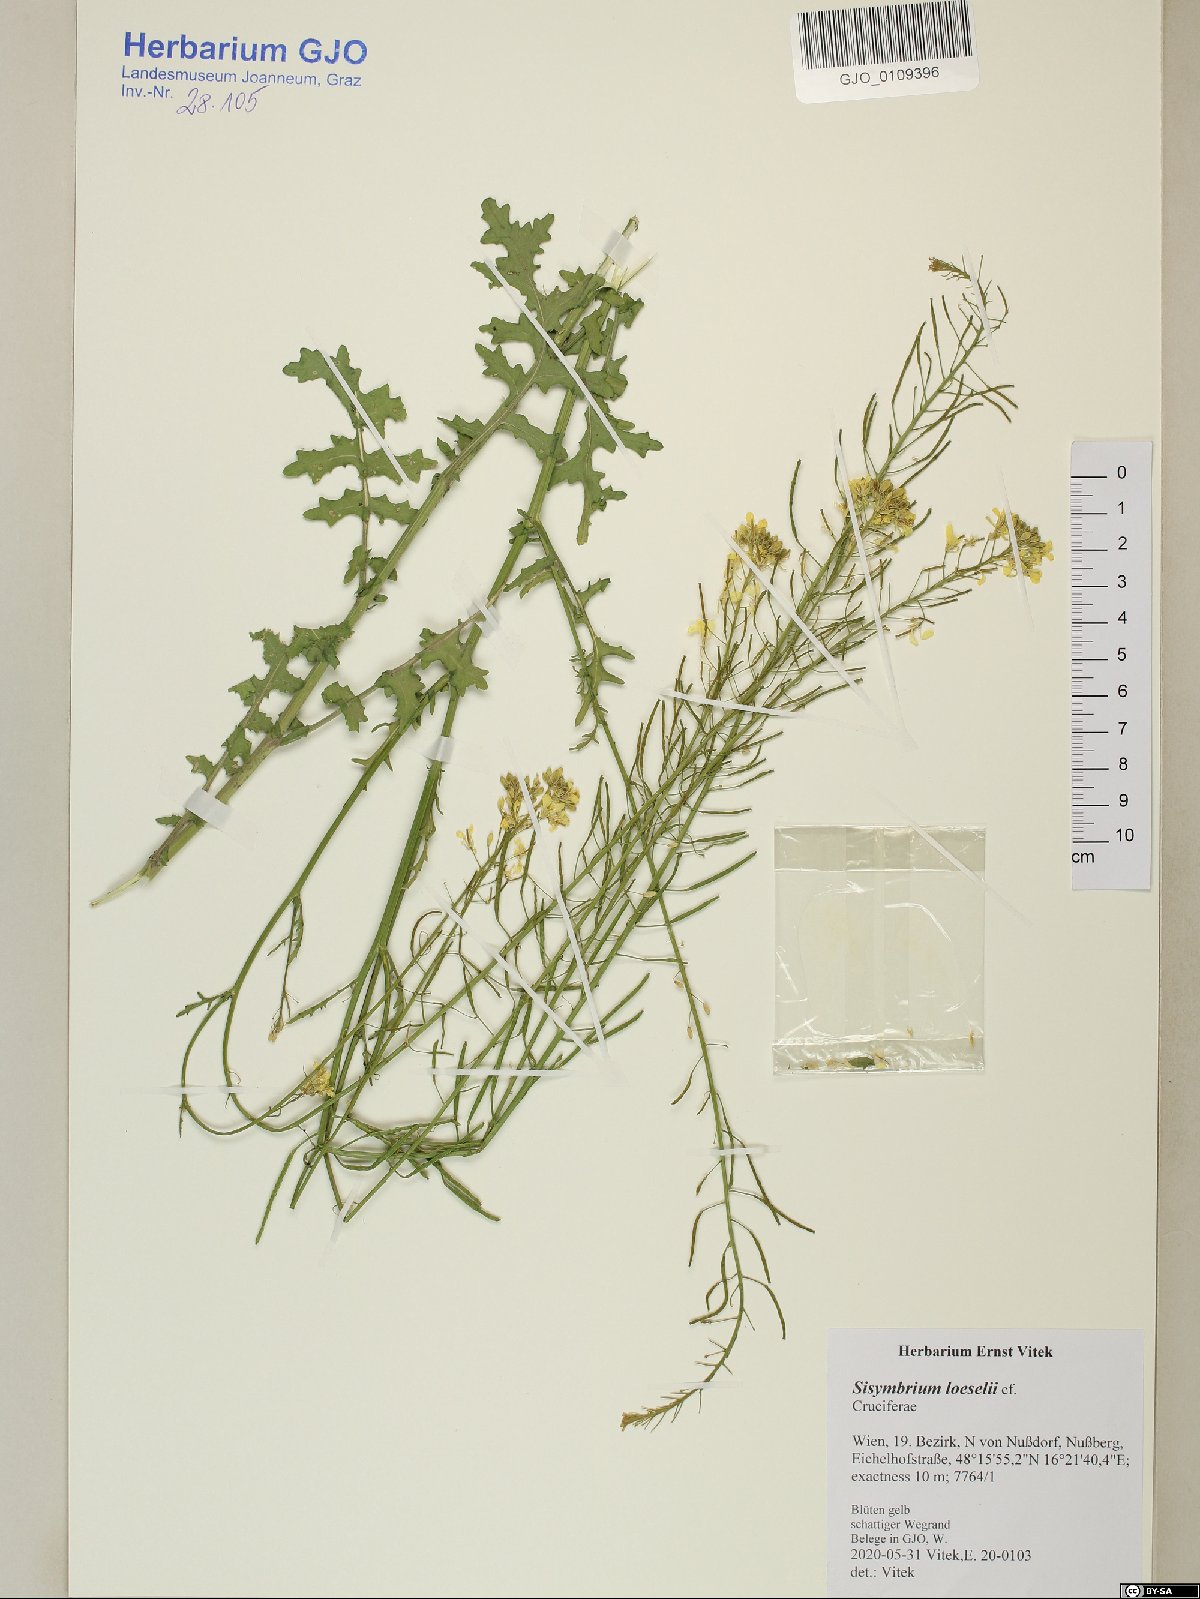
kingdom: Plantae
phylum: Tracheophyta
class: Magnoliopsida
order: Brassicales
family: Brassicaceae
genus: Sisymbrium
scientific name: Sisymbrium loeselii
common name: False london-rocket
